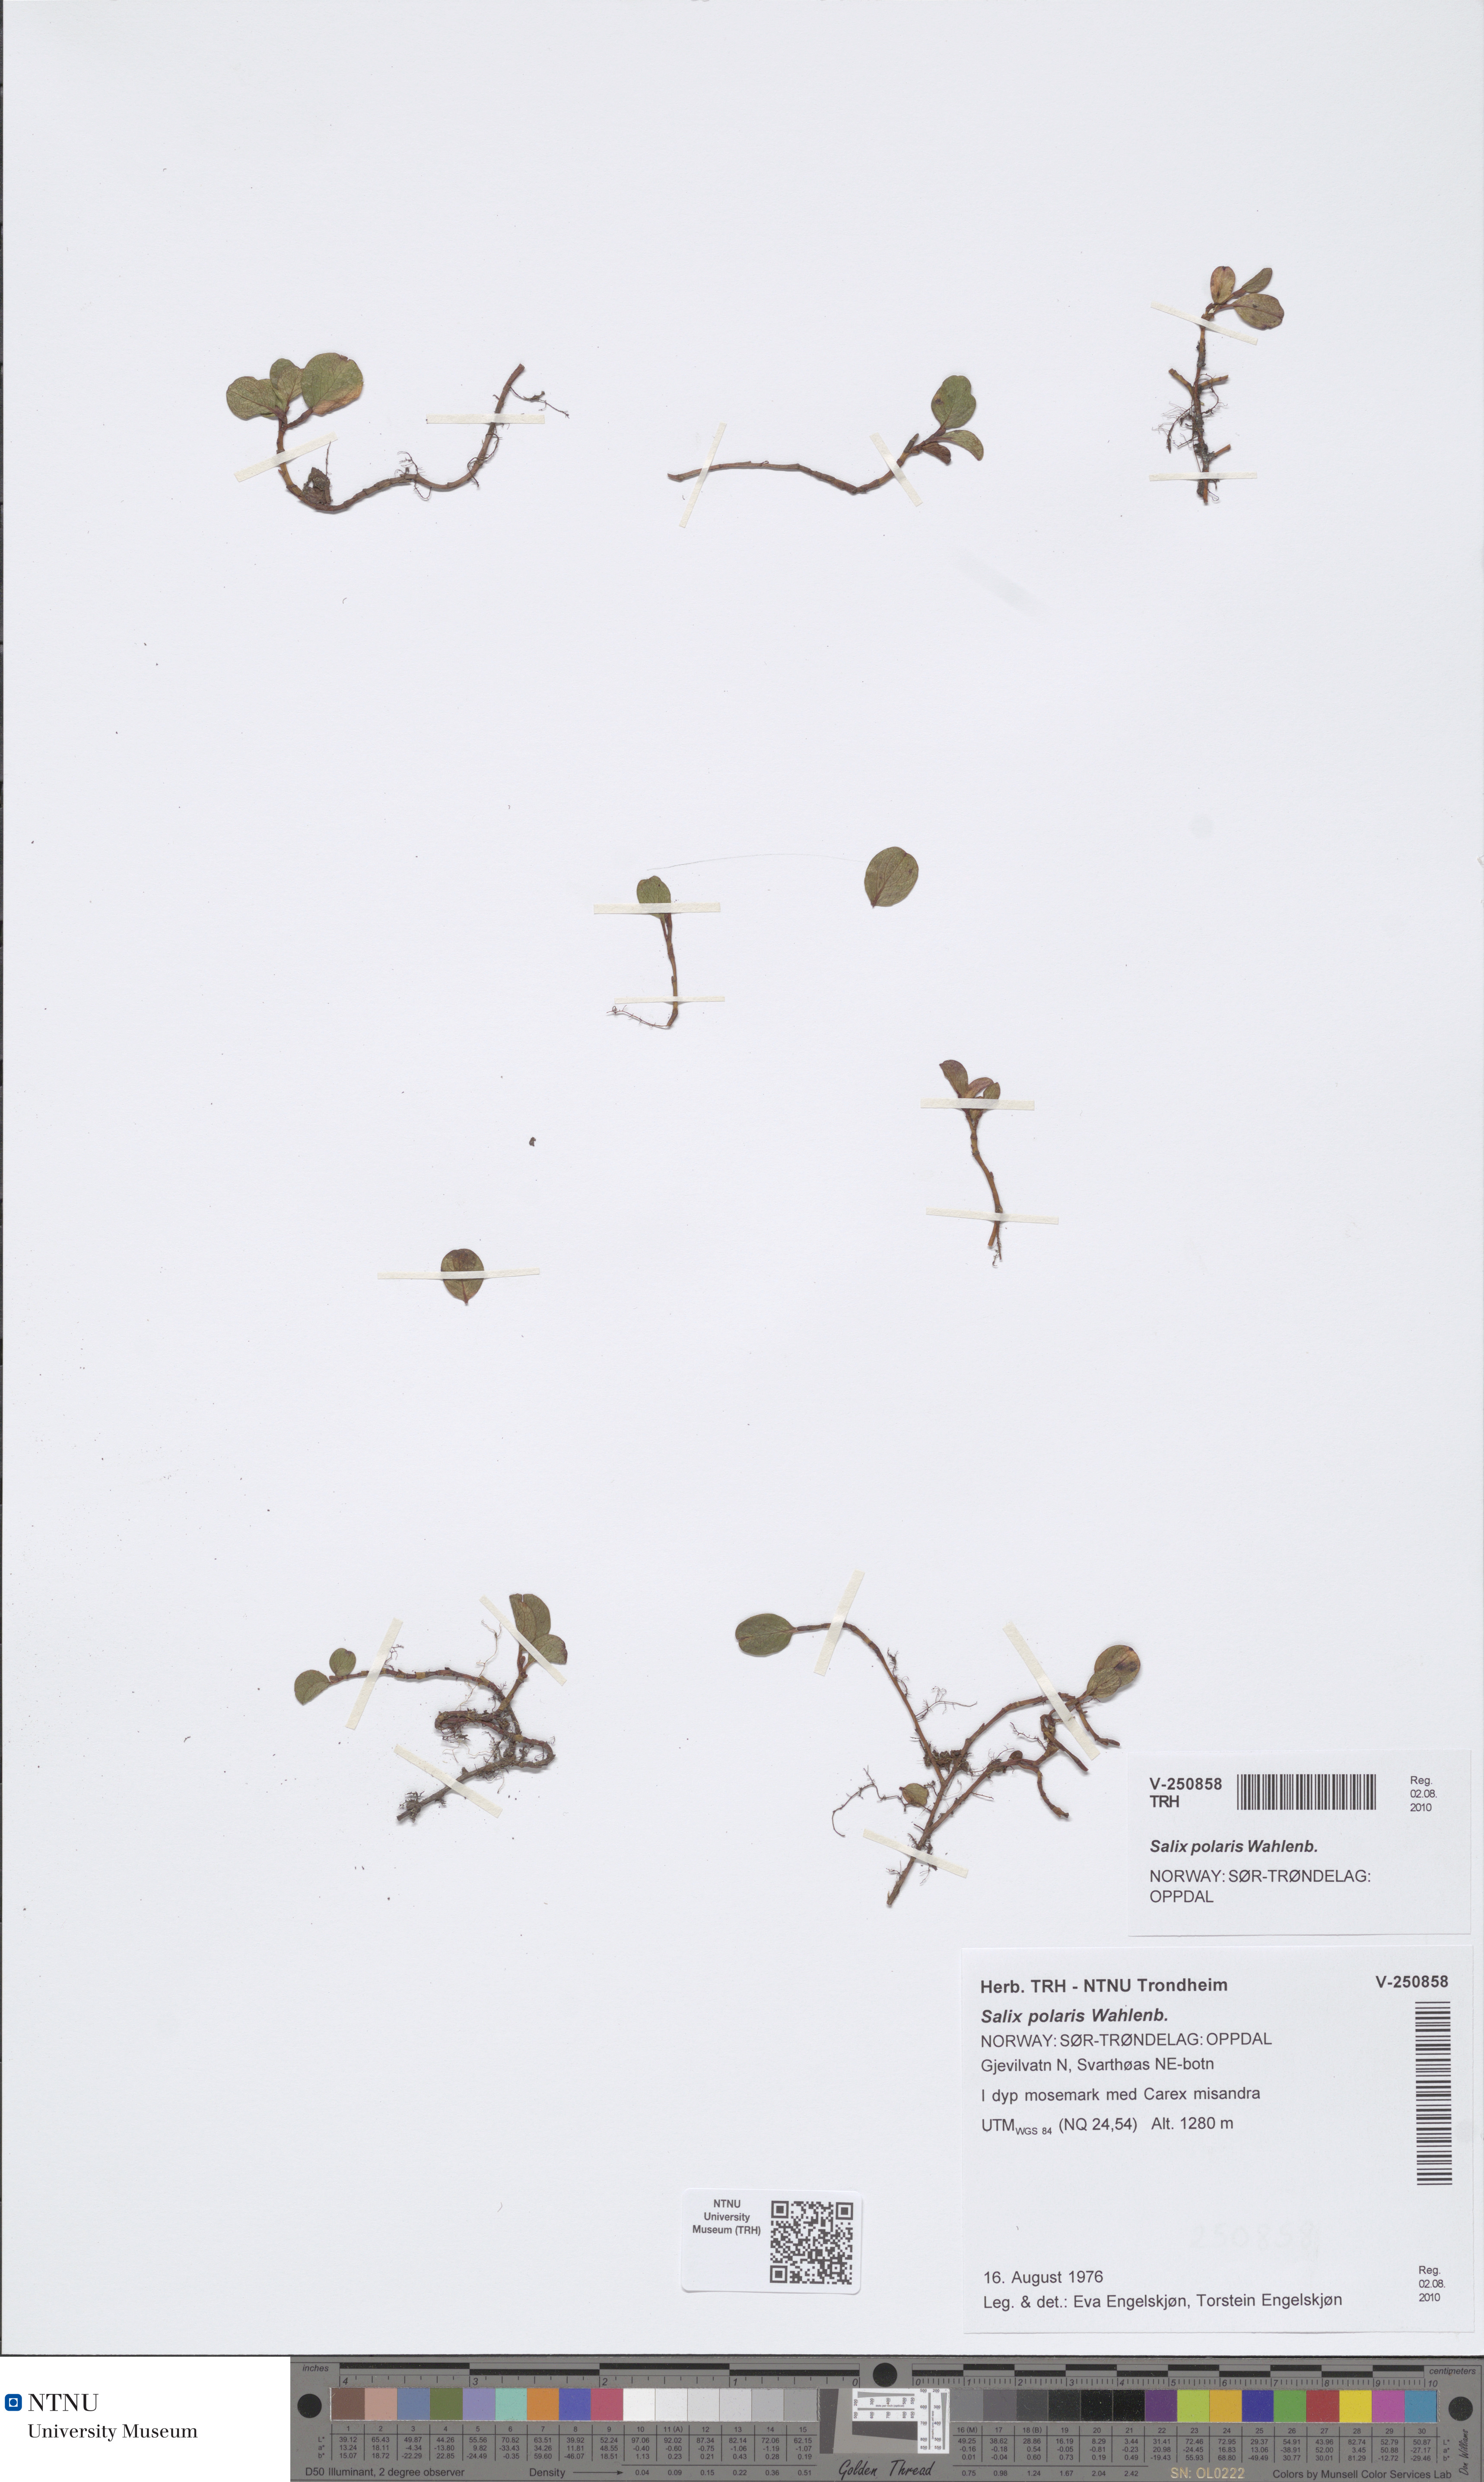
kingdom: Plantae
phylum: Tracheophyta
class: Magnoliopsida
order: Malpighiales
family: Salicaceae
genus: Salix
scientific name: Salix polaris
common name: Polar willow
